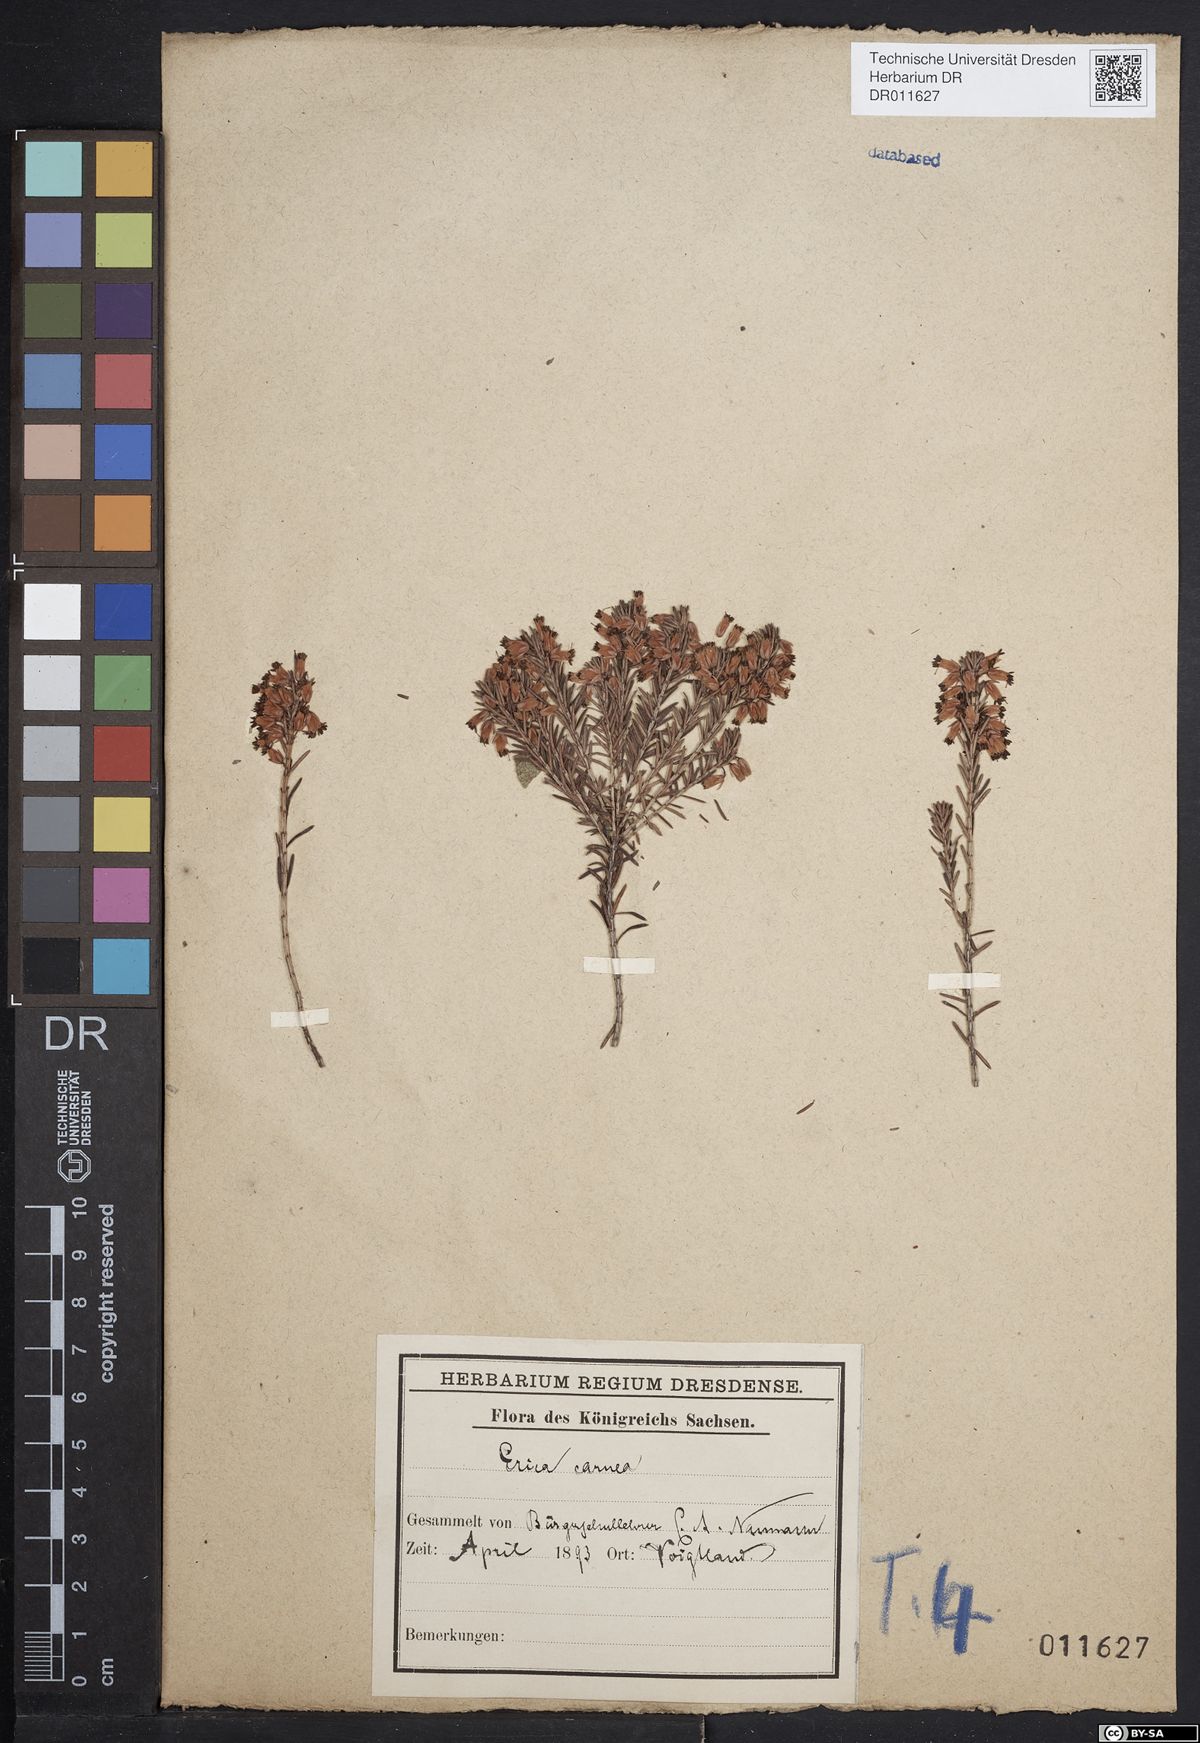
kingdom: Plantae
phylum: Tracheophyta
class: Magnoliopsida
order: Ericales
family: Ericaceae
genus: Erica
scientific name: Erica carnea
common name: Winter heath
